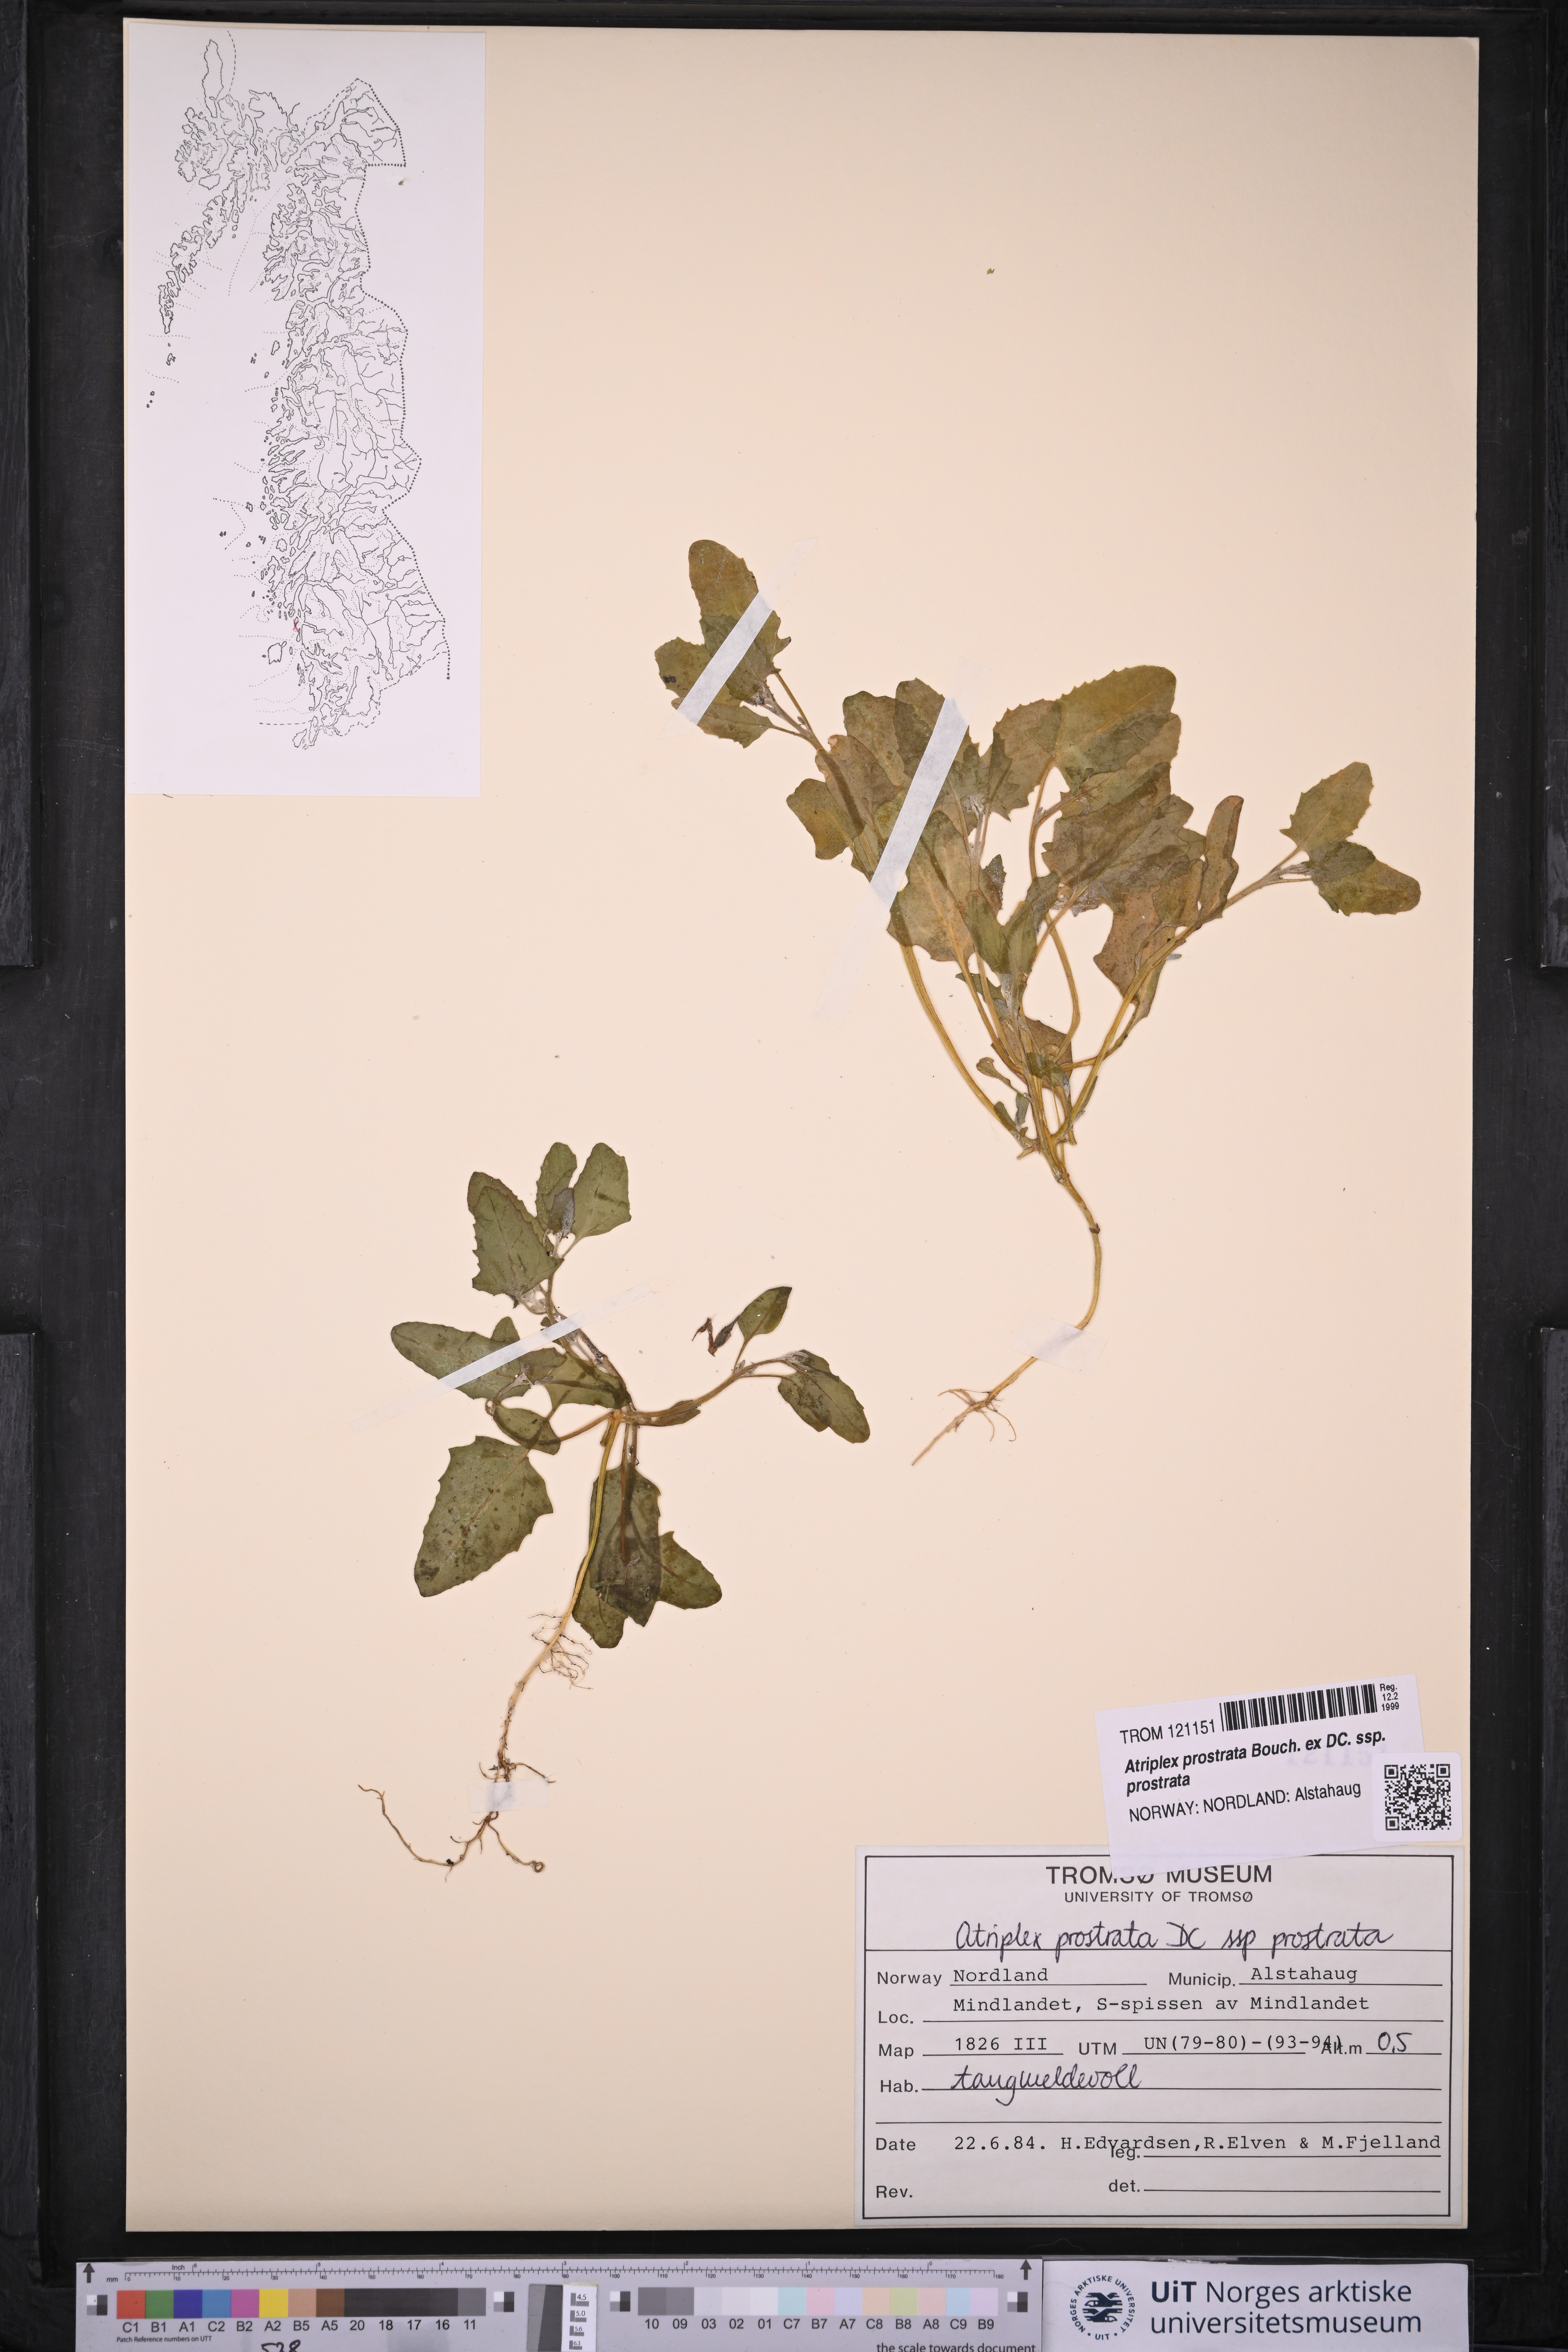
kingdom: Plantae
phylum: Tracheophyta
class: Magnoliopsida
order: Caryophyllales
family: Amaranthaceae
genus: Atriplex
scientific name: Atriplex prostrata
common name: Spear-leaved orache
